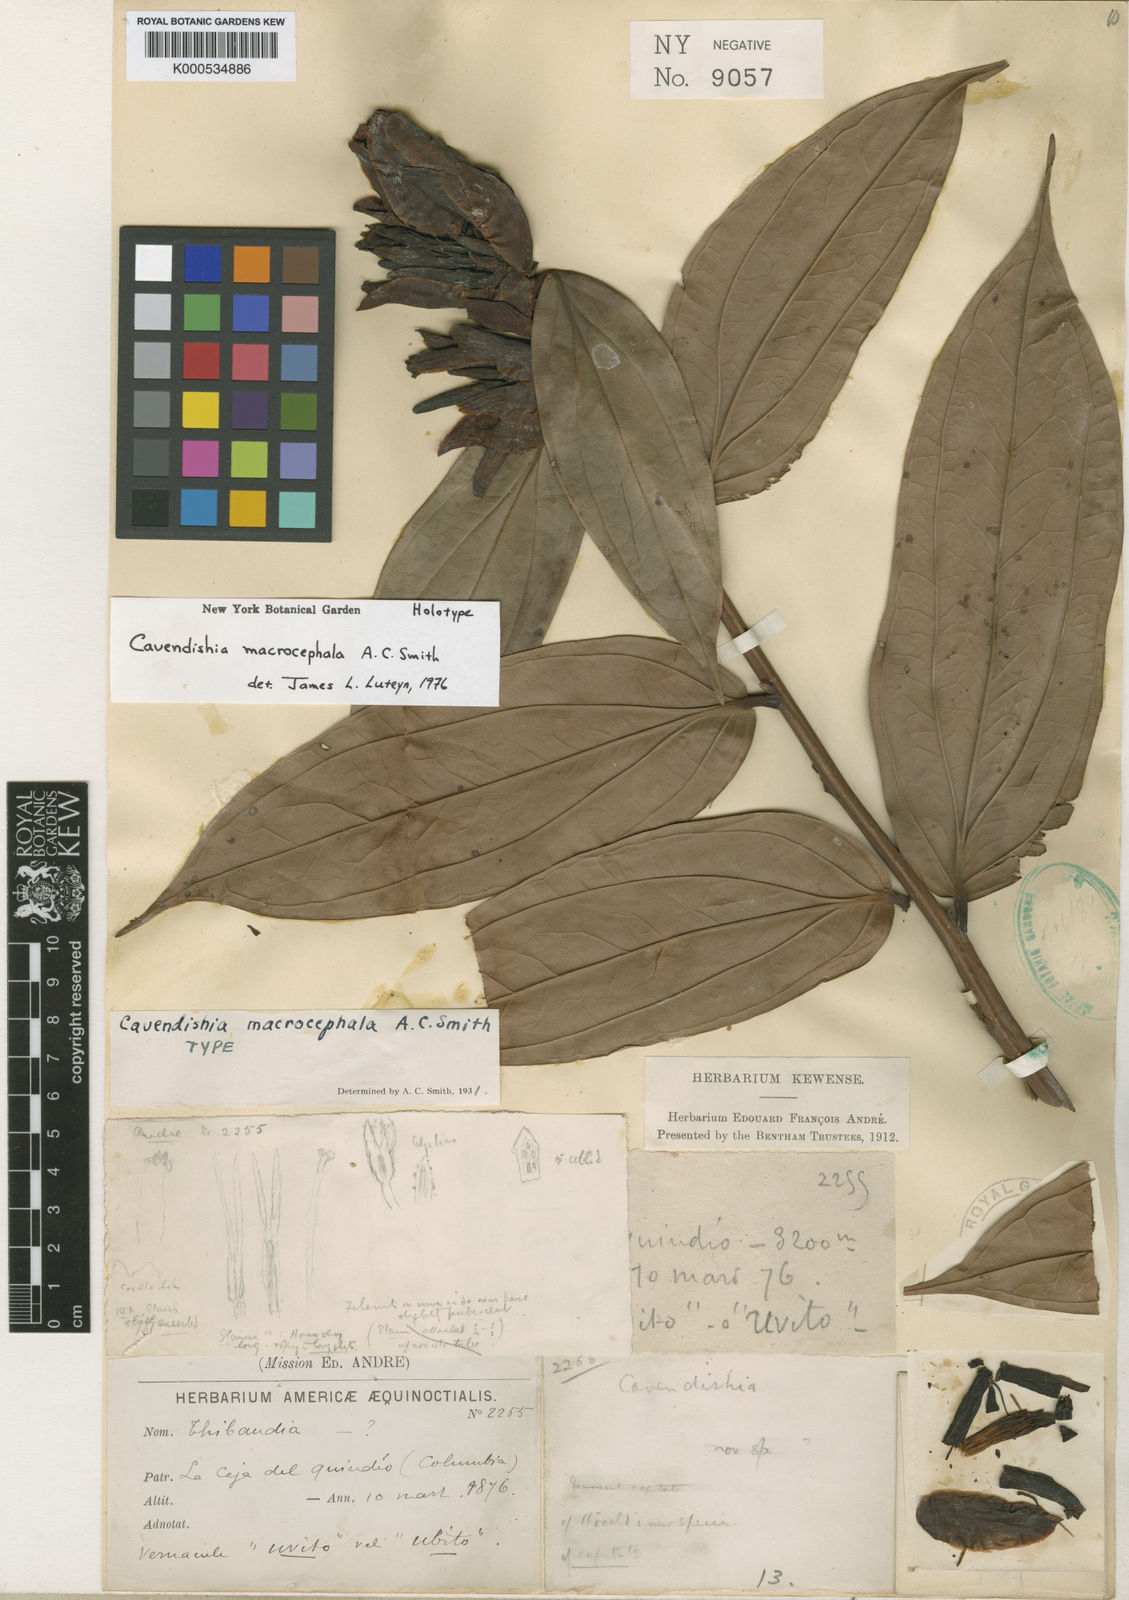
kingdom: Plantae
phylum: Tracheophyta
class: Magnoliopsida
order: Ericales
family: Ericaceae
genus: Cavendishia
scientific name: Cavendishia macrocephala
